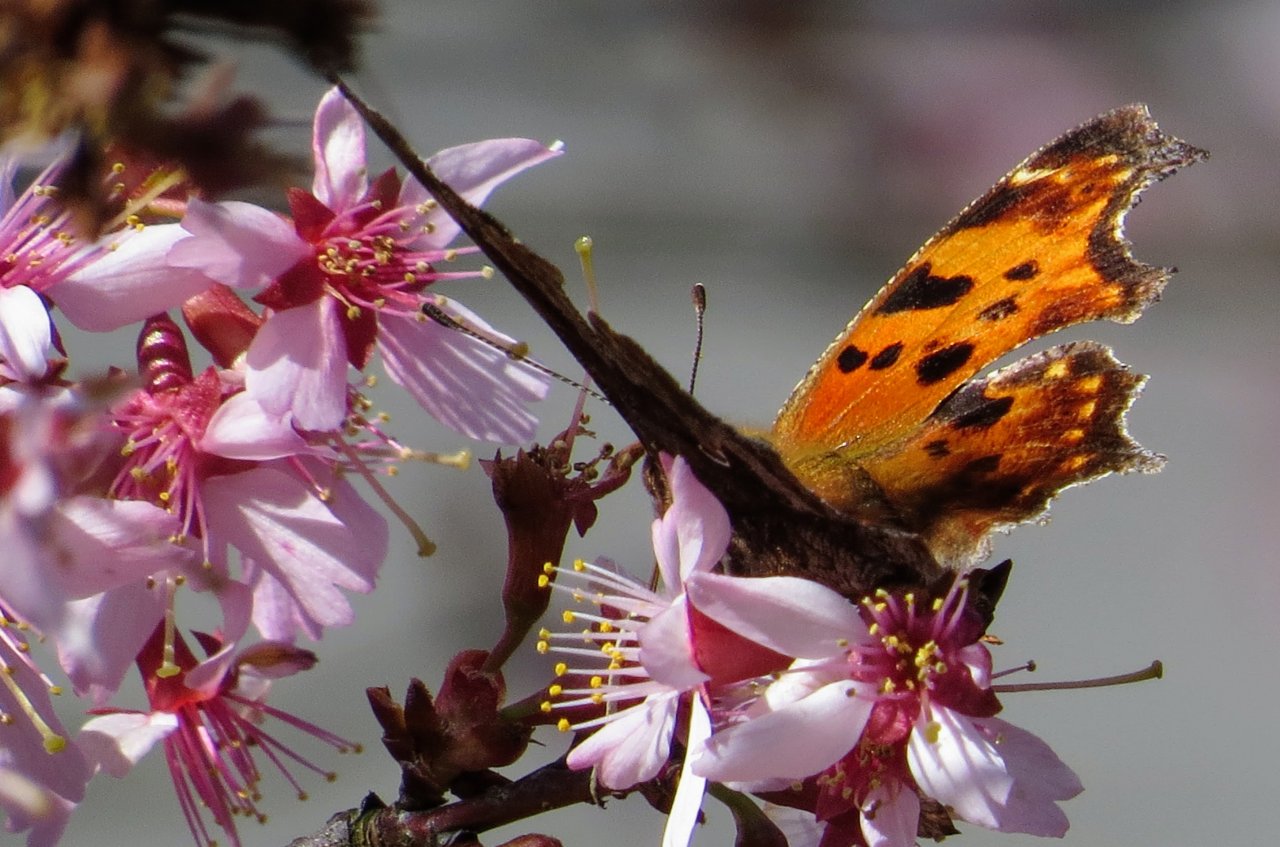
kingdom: Animalia
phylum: Arthropoda
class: Insecta
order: Lepidoptera
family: Nymphalidae
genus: Polygonia
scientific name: Polygonia comma
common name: Eastern Comma
